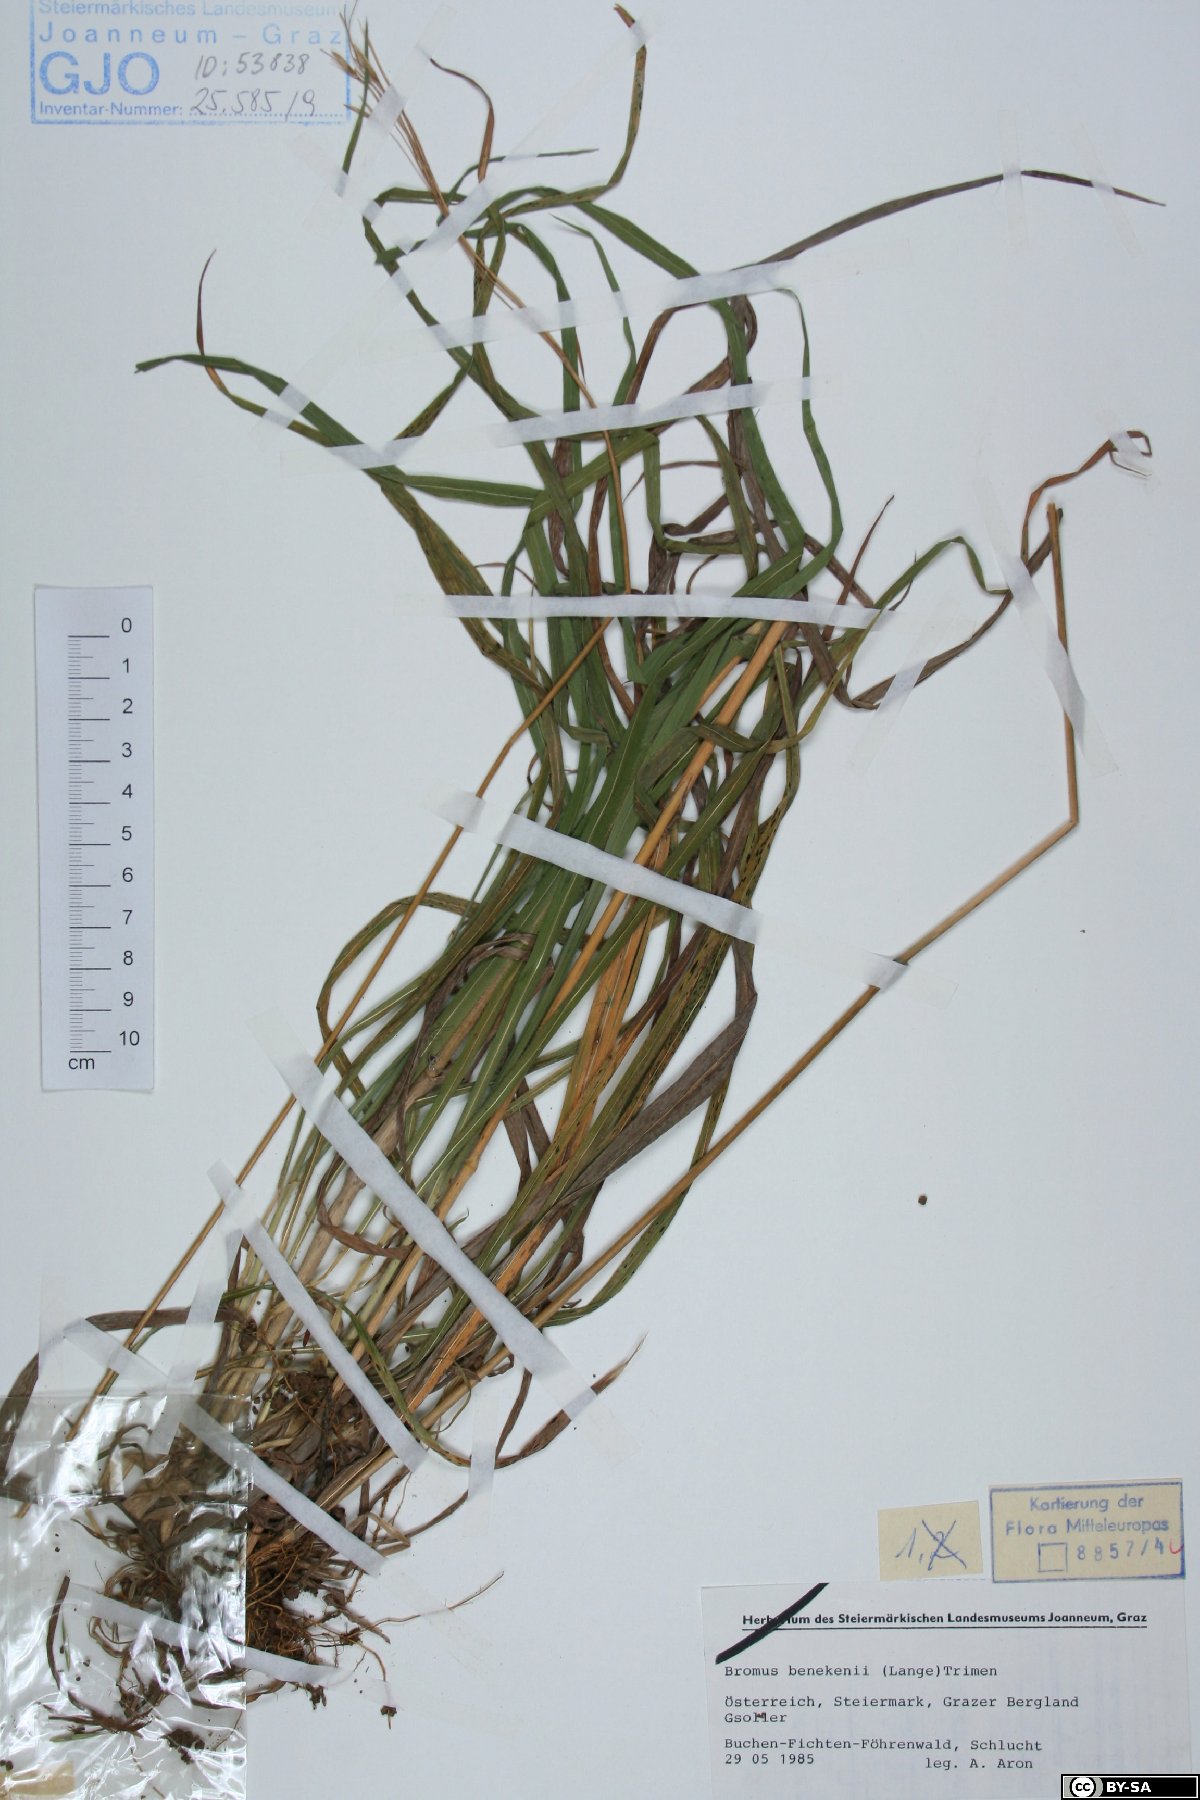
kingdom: Plantae
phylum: Tracheophyta
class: Liliopsida
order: Poales
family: Poaceae
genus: Bromus
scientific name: Bromus benekenii
